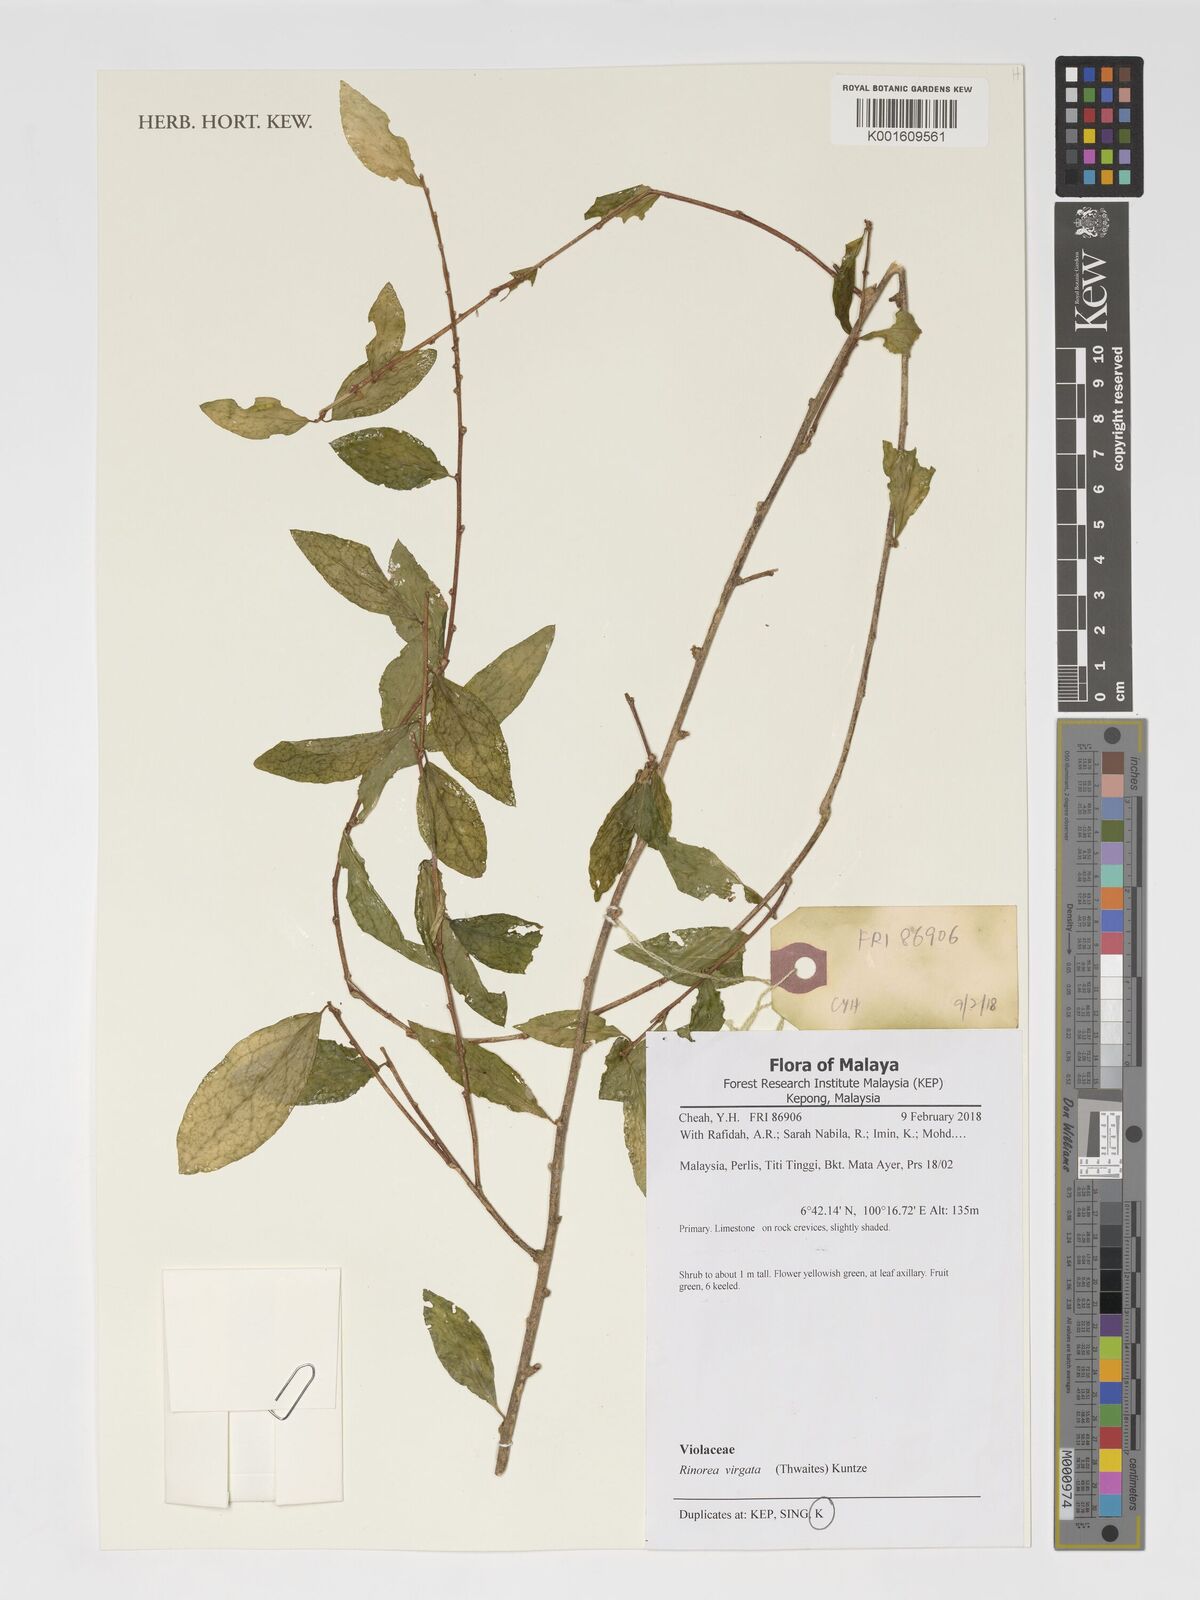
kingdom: Plantae
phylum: Tracheophyta
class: Magnoliopsida
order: Malpighiales
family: Violaceae
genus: Scyphellandra
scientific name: Scyphellandra virgata
